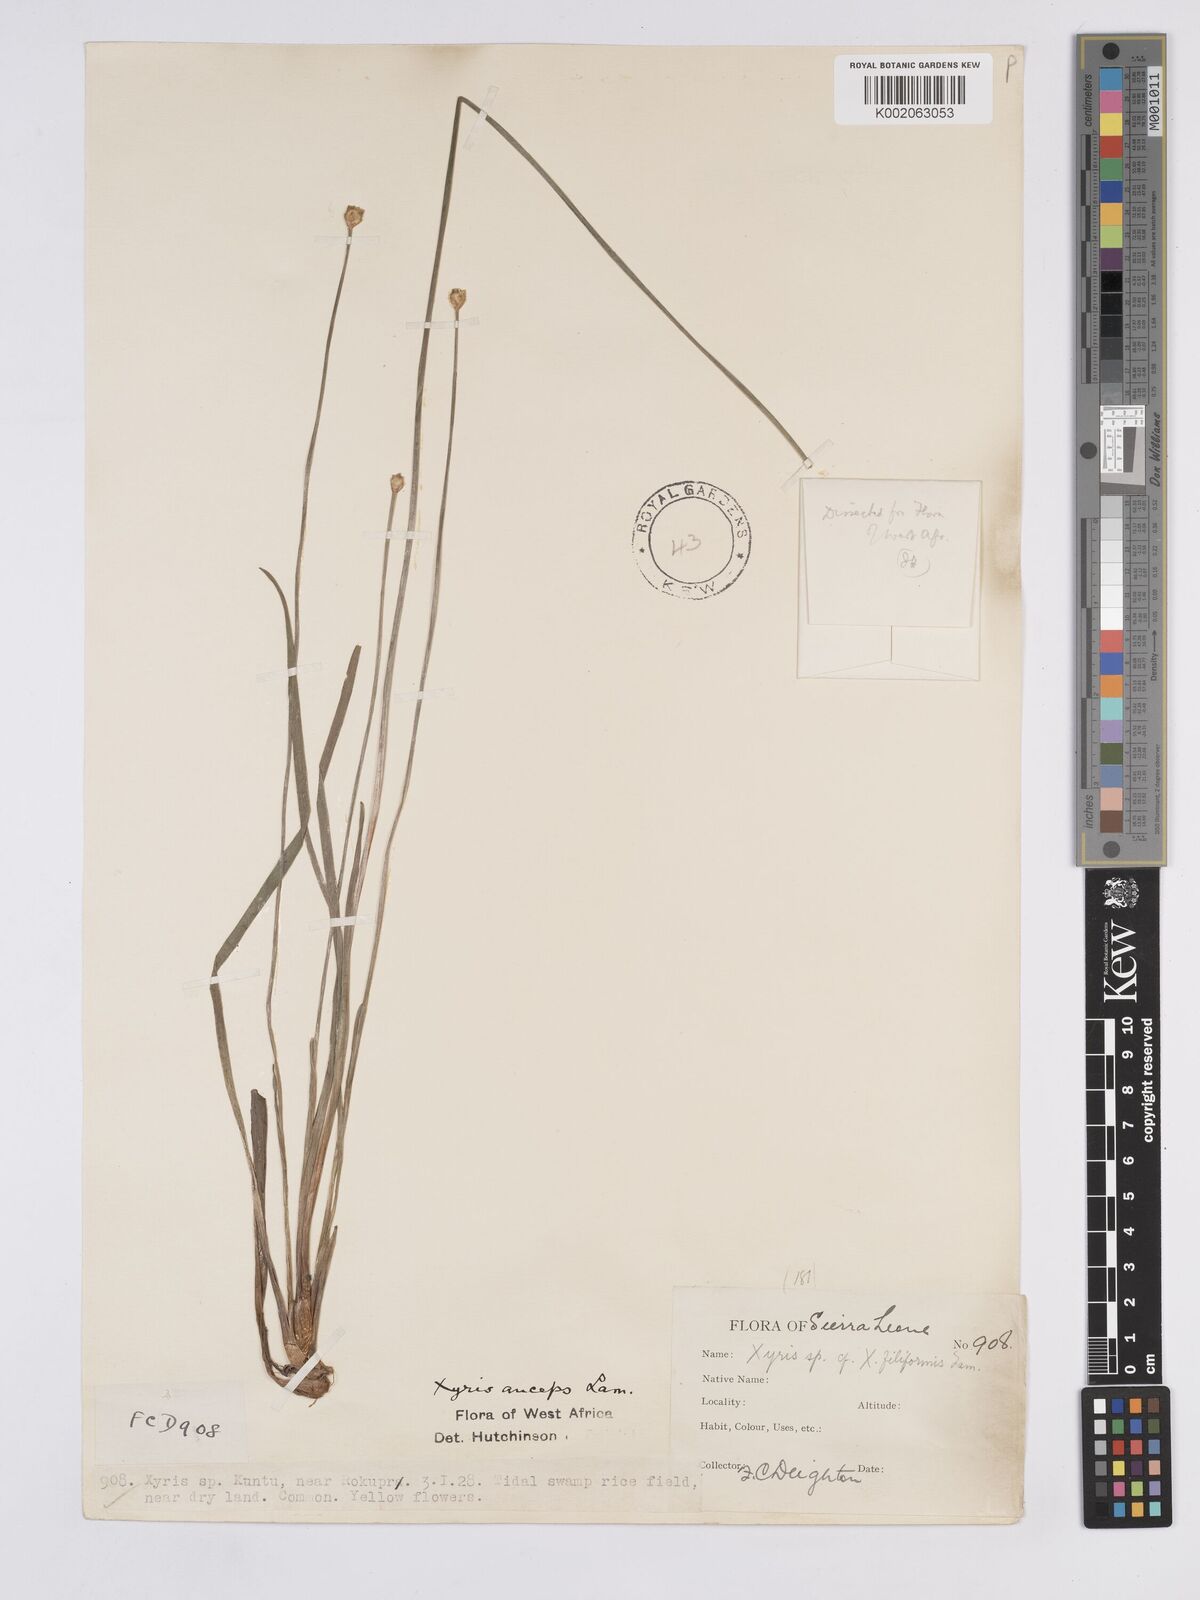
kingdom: Plantae
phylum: Tracheophyta
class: Liliopsida
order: Poales
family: Xyridaceae
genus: Xyris
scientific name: Xyris anceps
